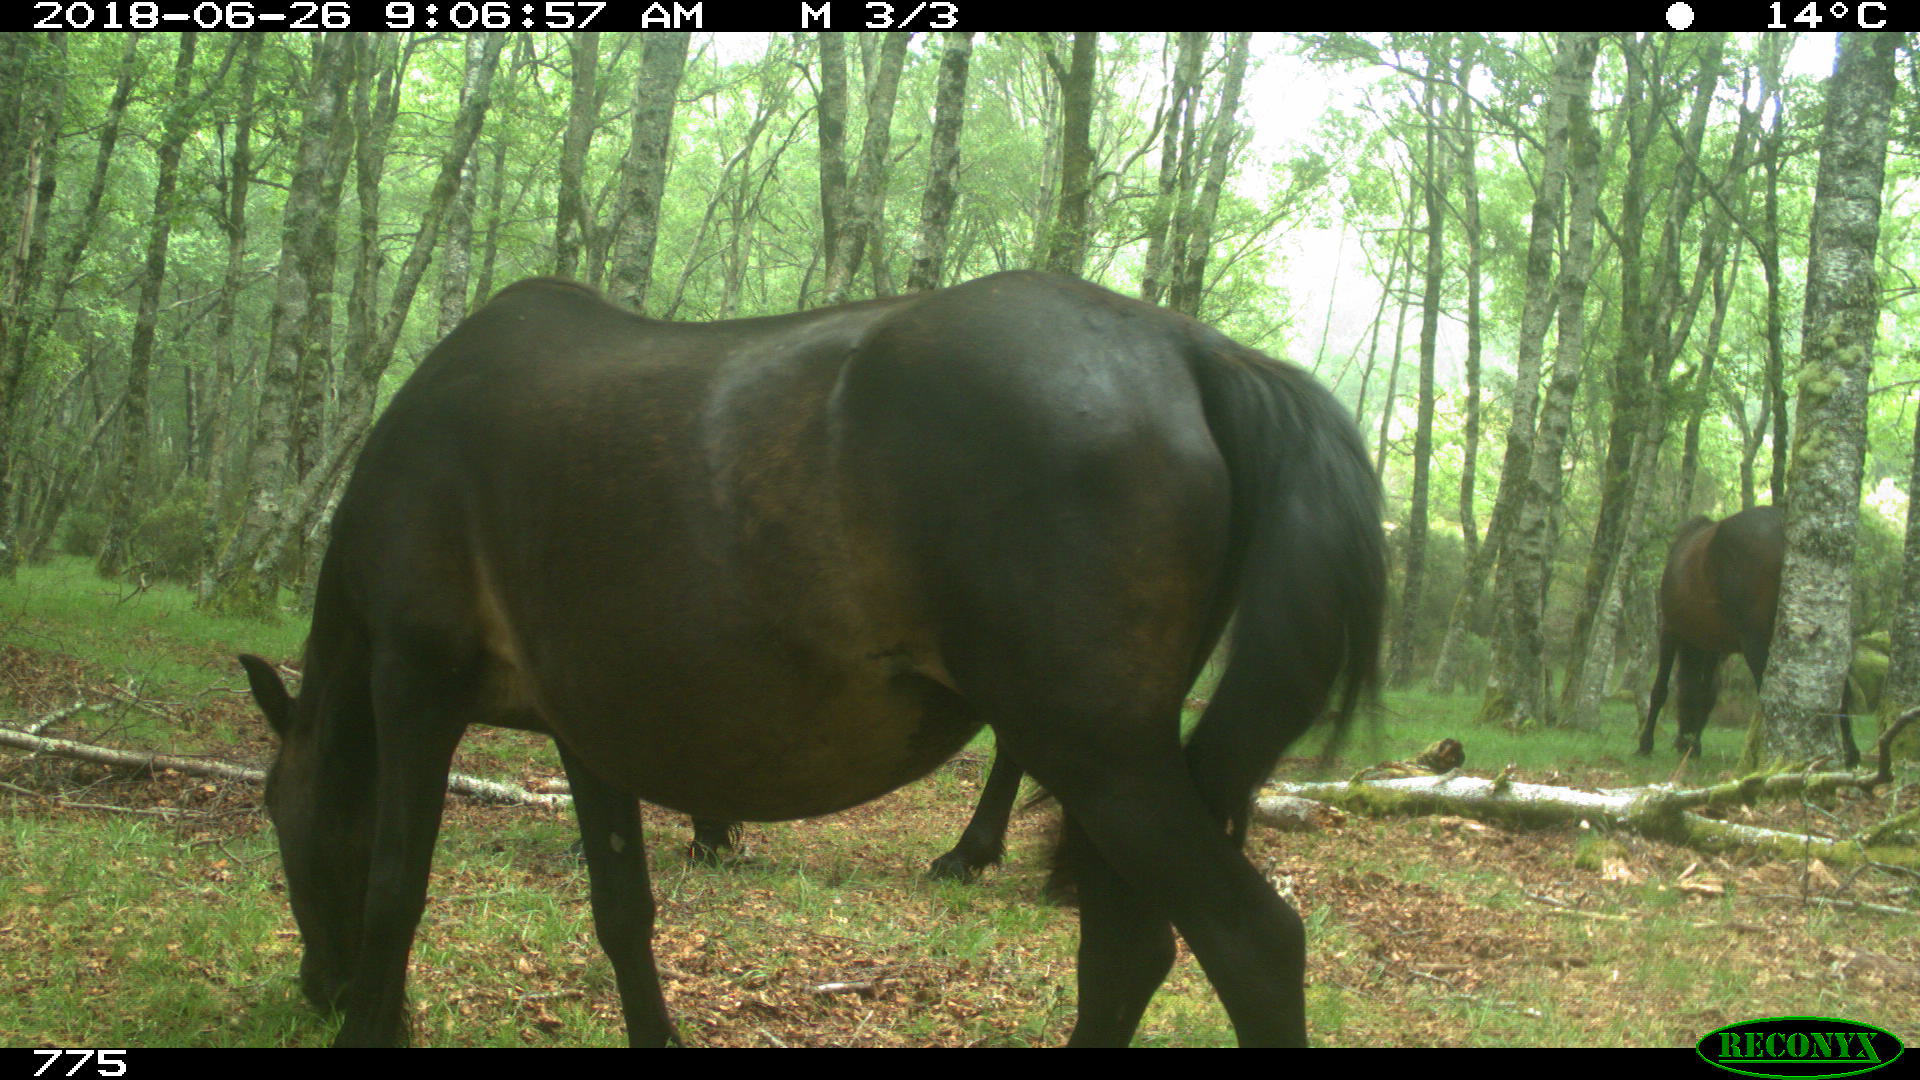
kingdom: Animalia
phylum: Chordata
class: Mammalia
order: Perissodactyla
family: Equidae
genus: Equus
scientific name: Equus caballus
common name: Horse
